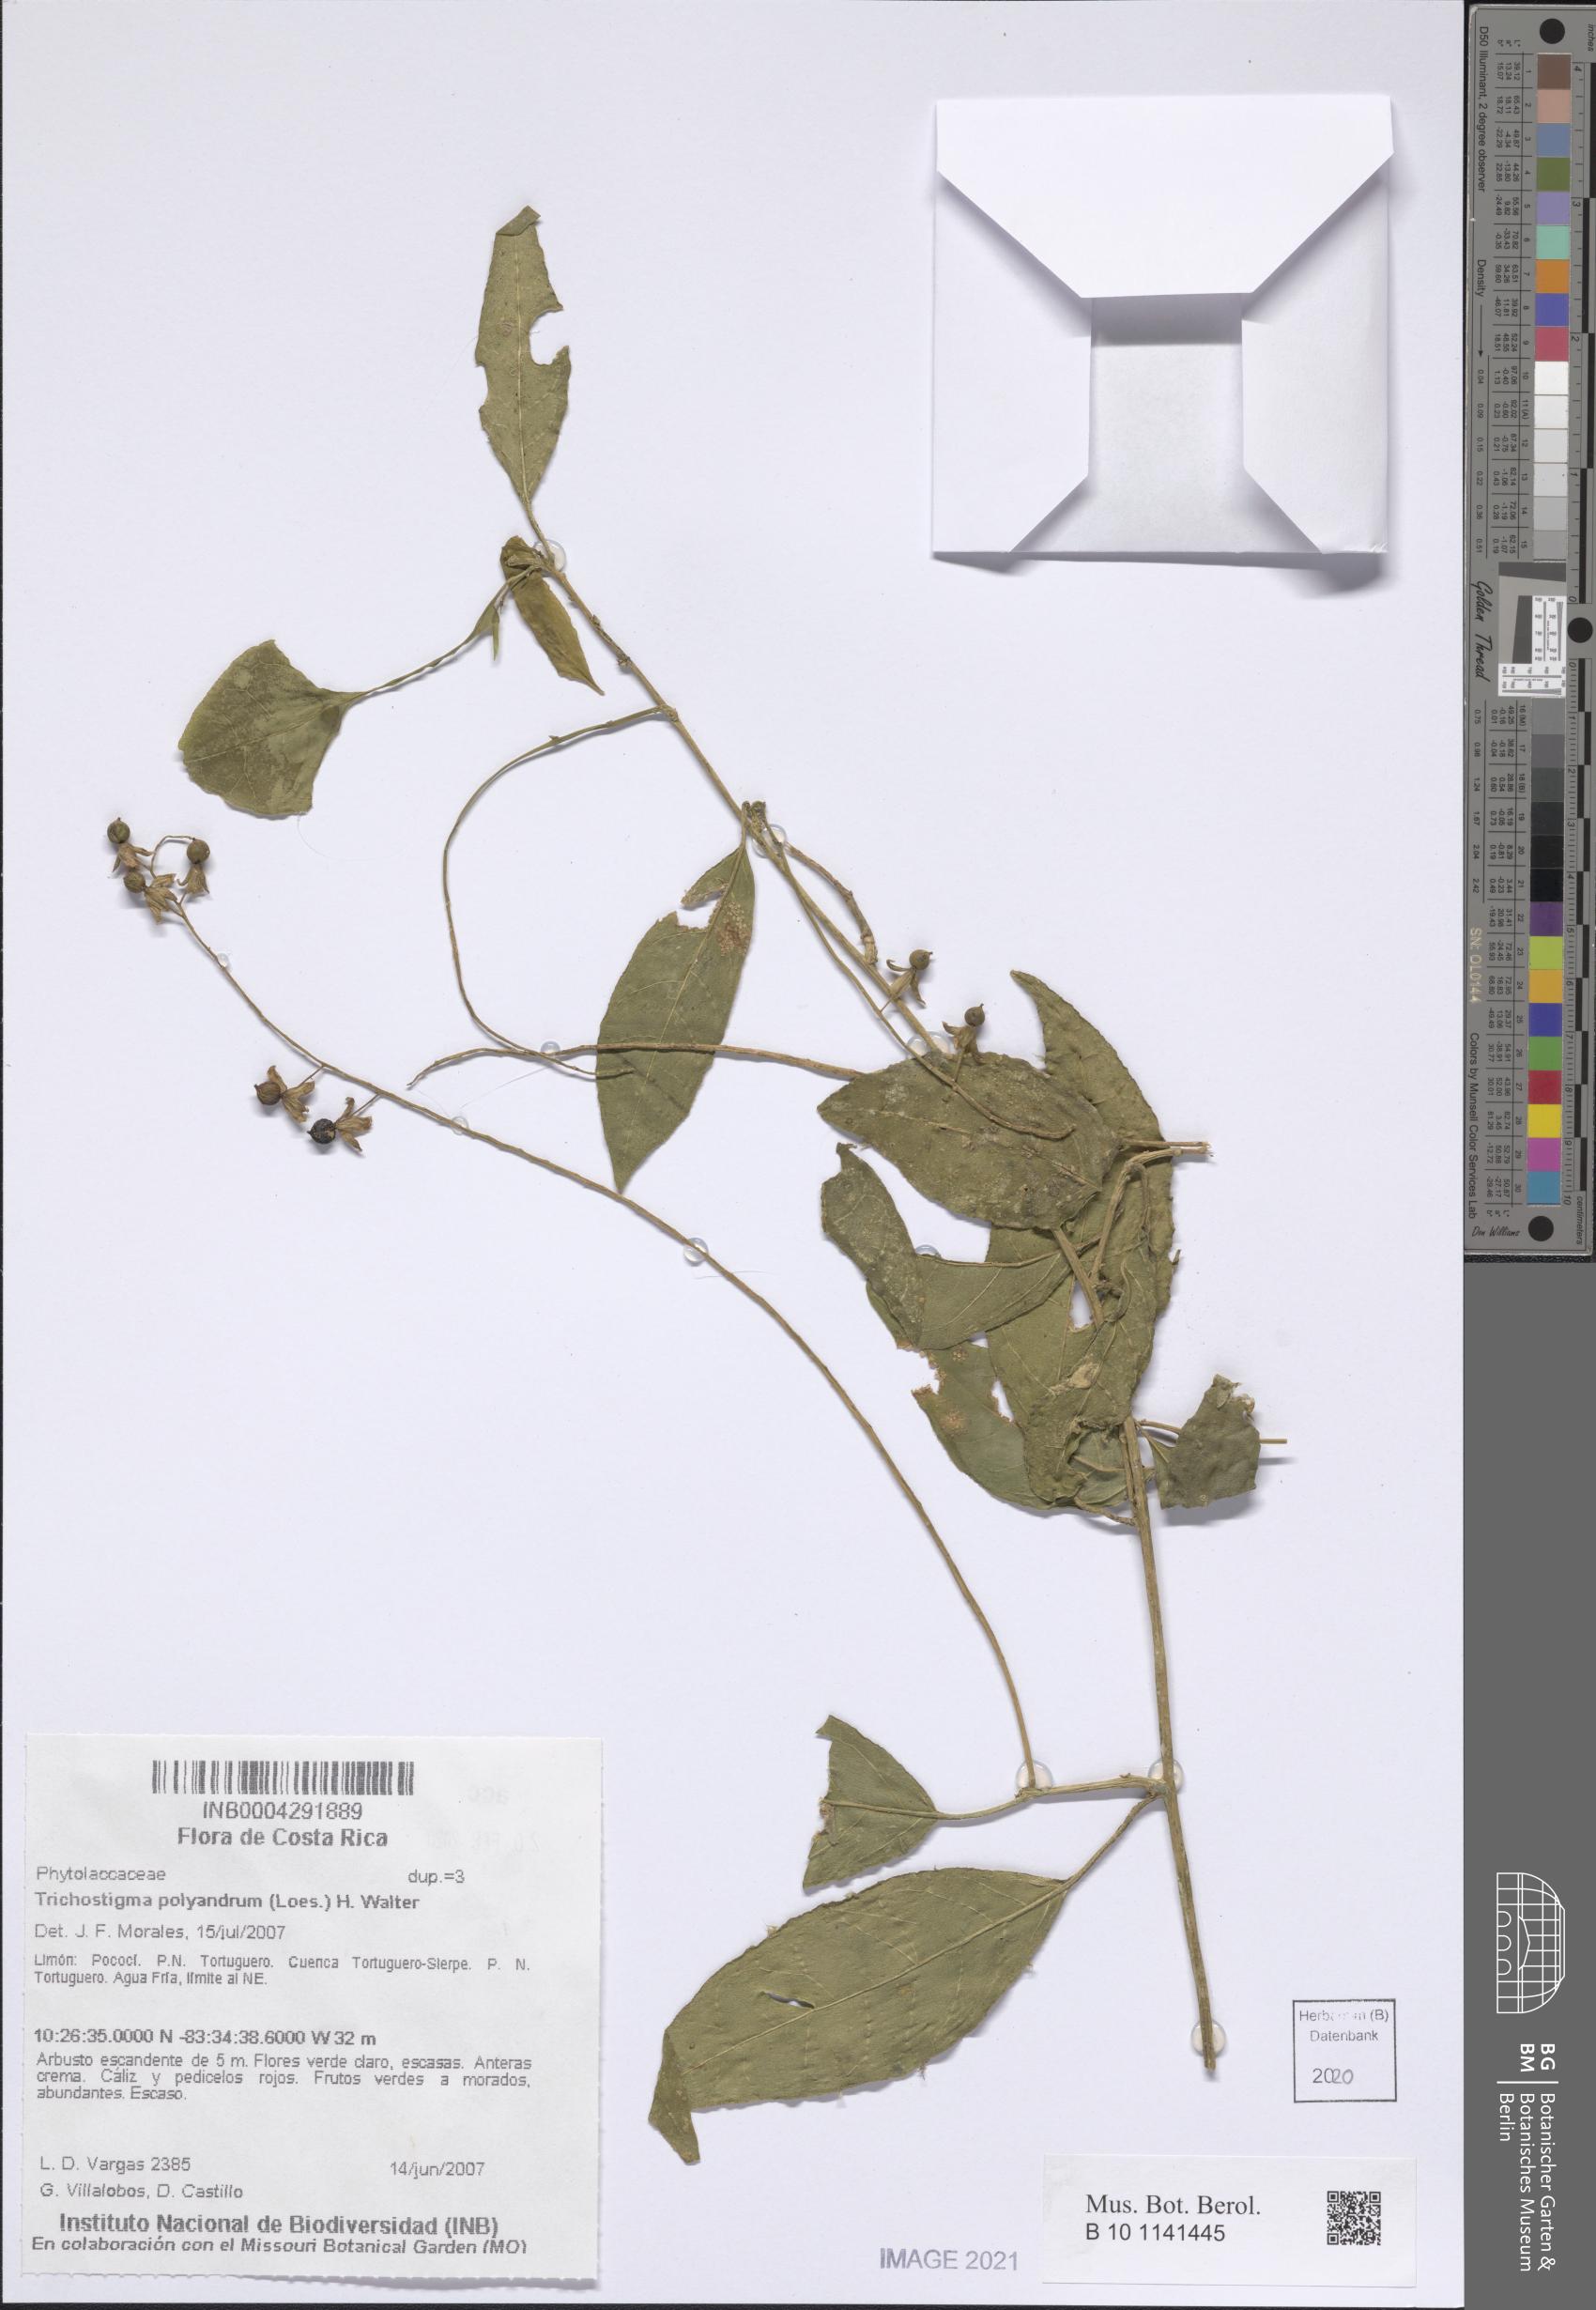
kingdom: Plantae
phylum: Tracheophyta
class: Magnoliopsida
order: Caryophyllales
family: Phytolaccaceae
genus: Trichostigma
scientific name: Trichostigma polyandrum
